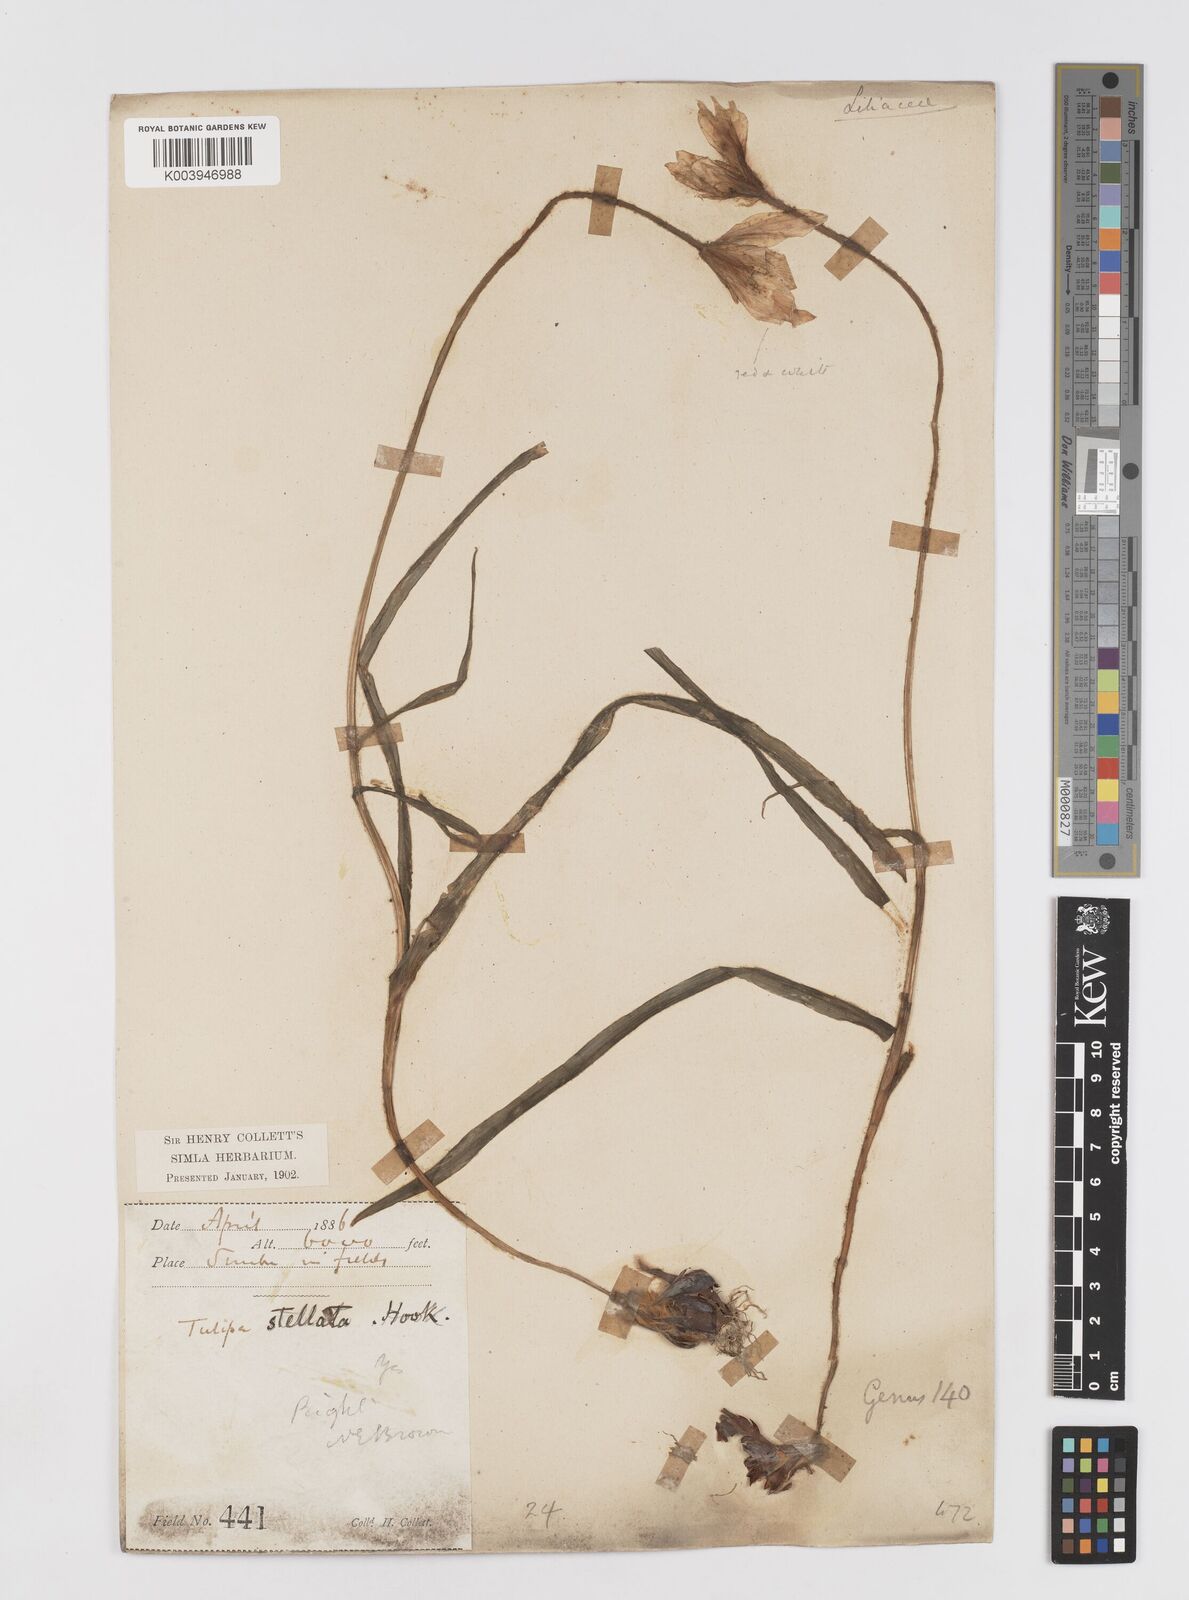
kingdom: Plantae
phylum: Tracheophyta
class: Liliopsida
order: Liliales
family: Liliaceae
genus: Tulipa
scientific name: Tulipa clusiana
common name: Lady tulip
